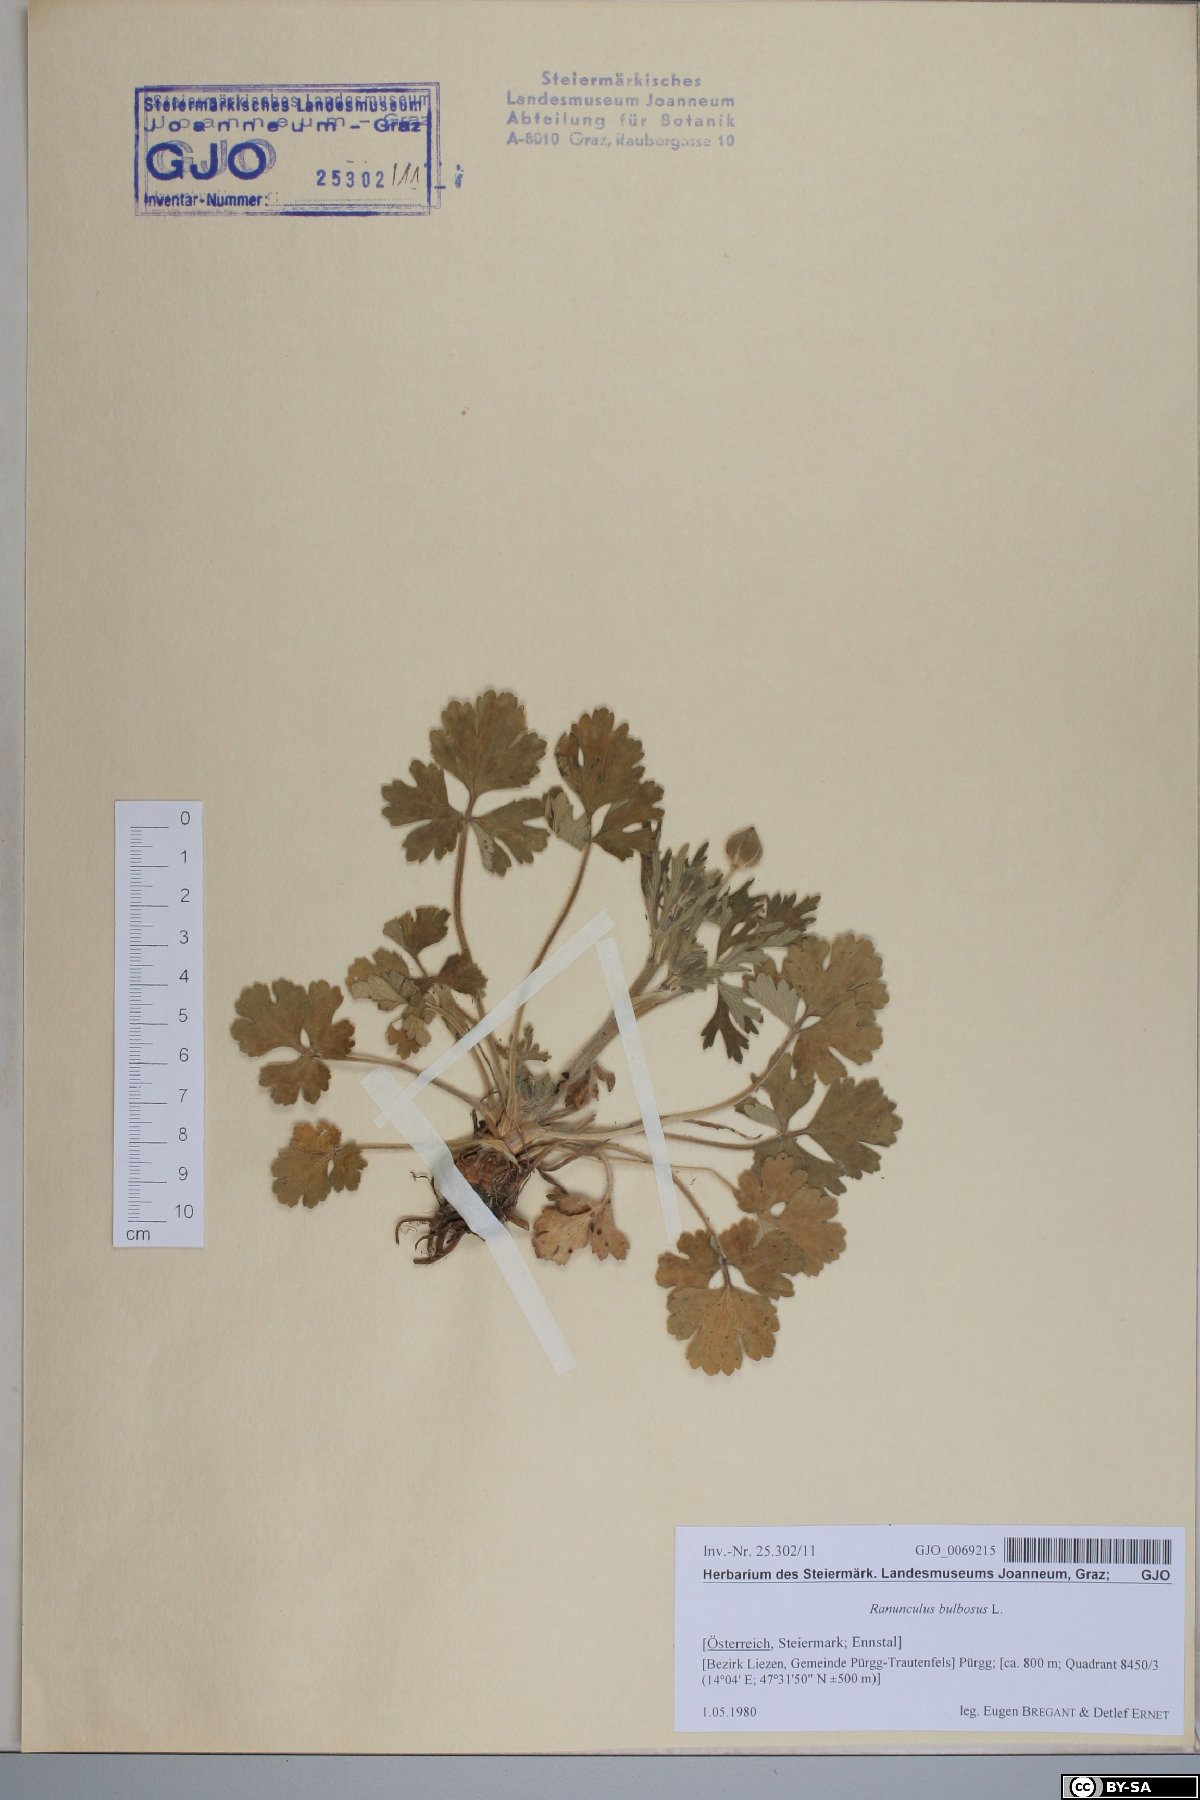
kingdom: Plantae
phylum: Tracheophyta
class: Magnoliopsida
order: Ranunculales
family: Ranunculaceae
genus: Ranunculus
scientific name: Ranunculus bulbosus
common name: Bulbous buttercup
